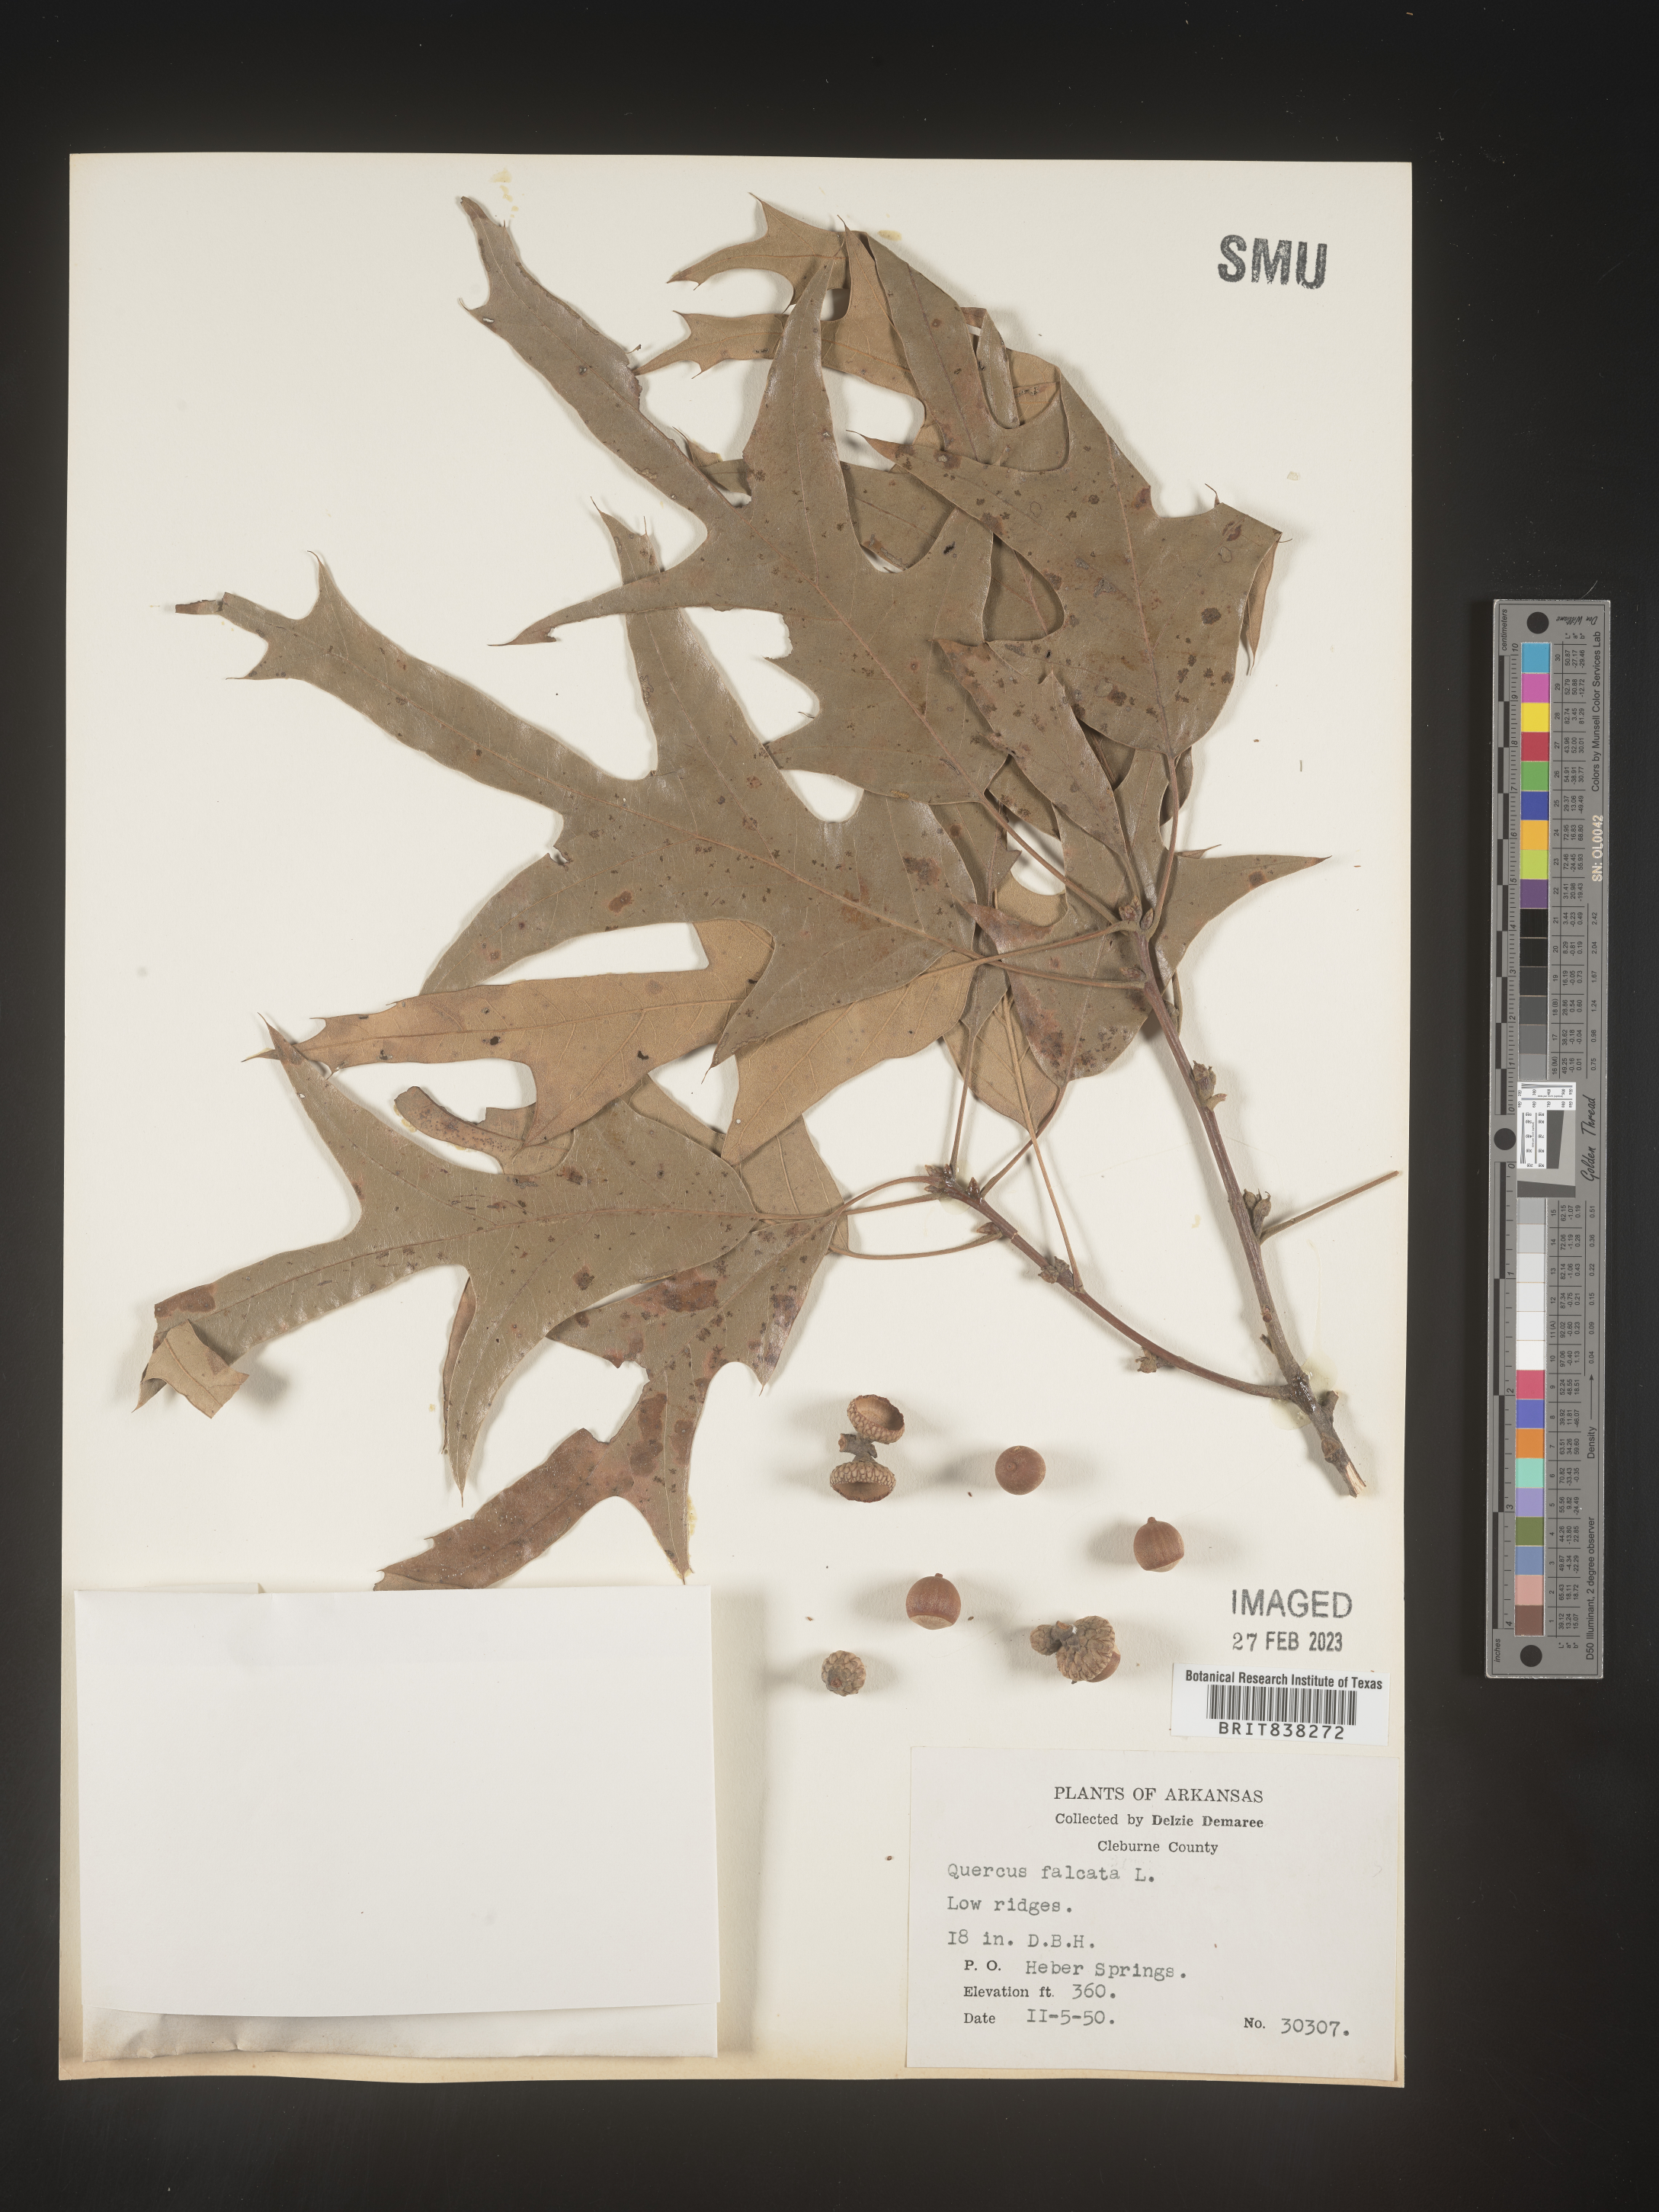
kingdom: Plantae
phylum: Tracheophyta
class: Magnoliopsida
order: Fagales
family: Fagaceae
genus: Quercus
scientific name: Quercus falcata
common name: Southern red oak
